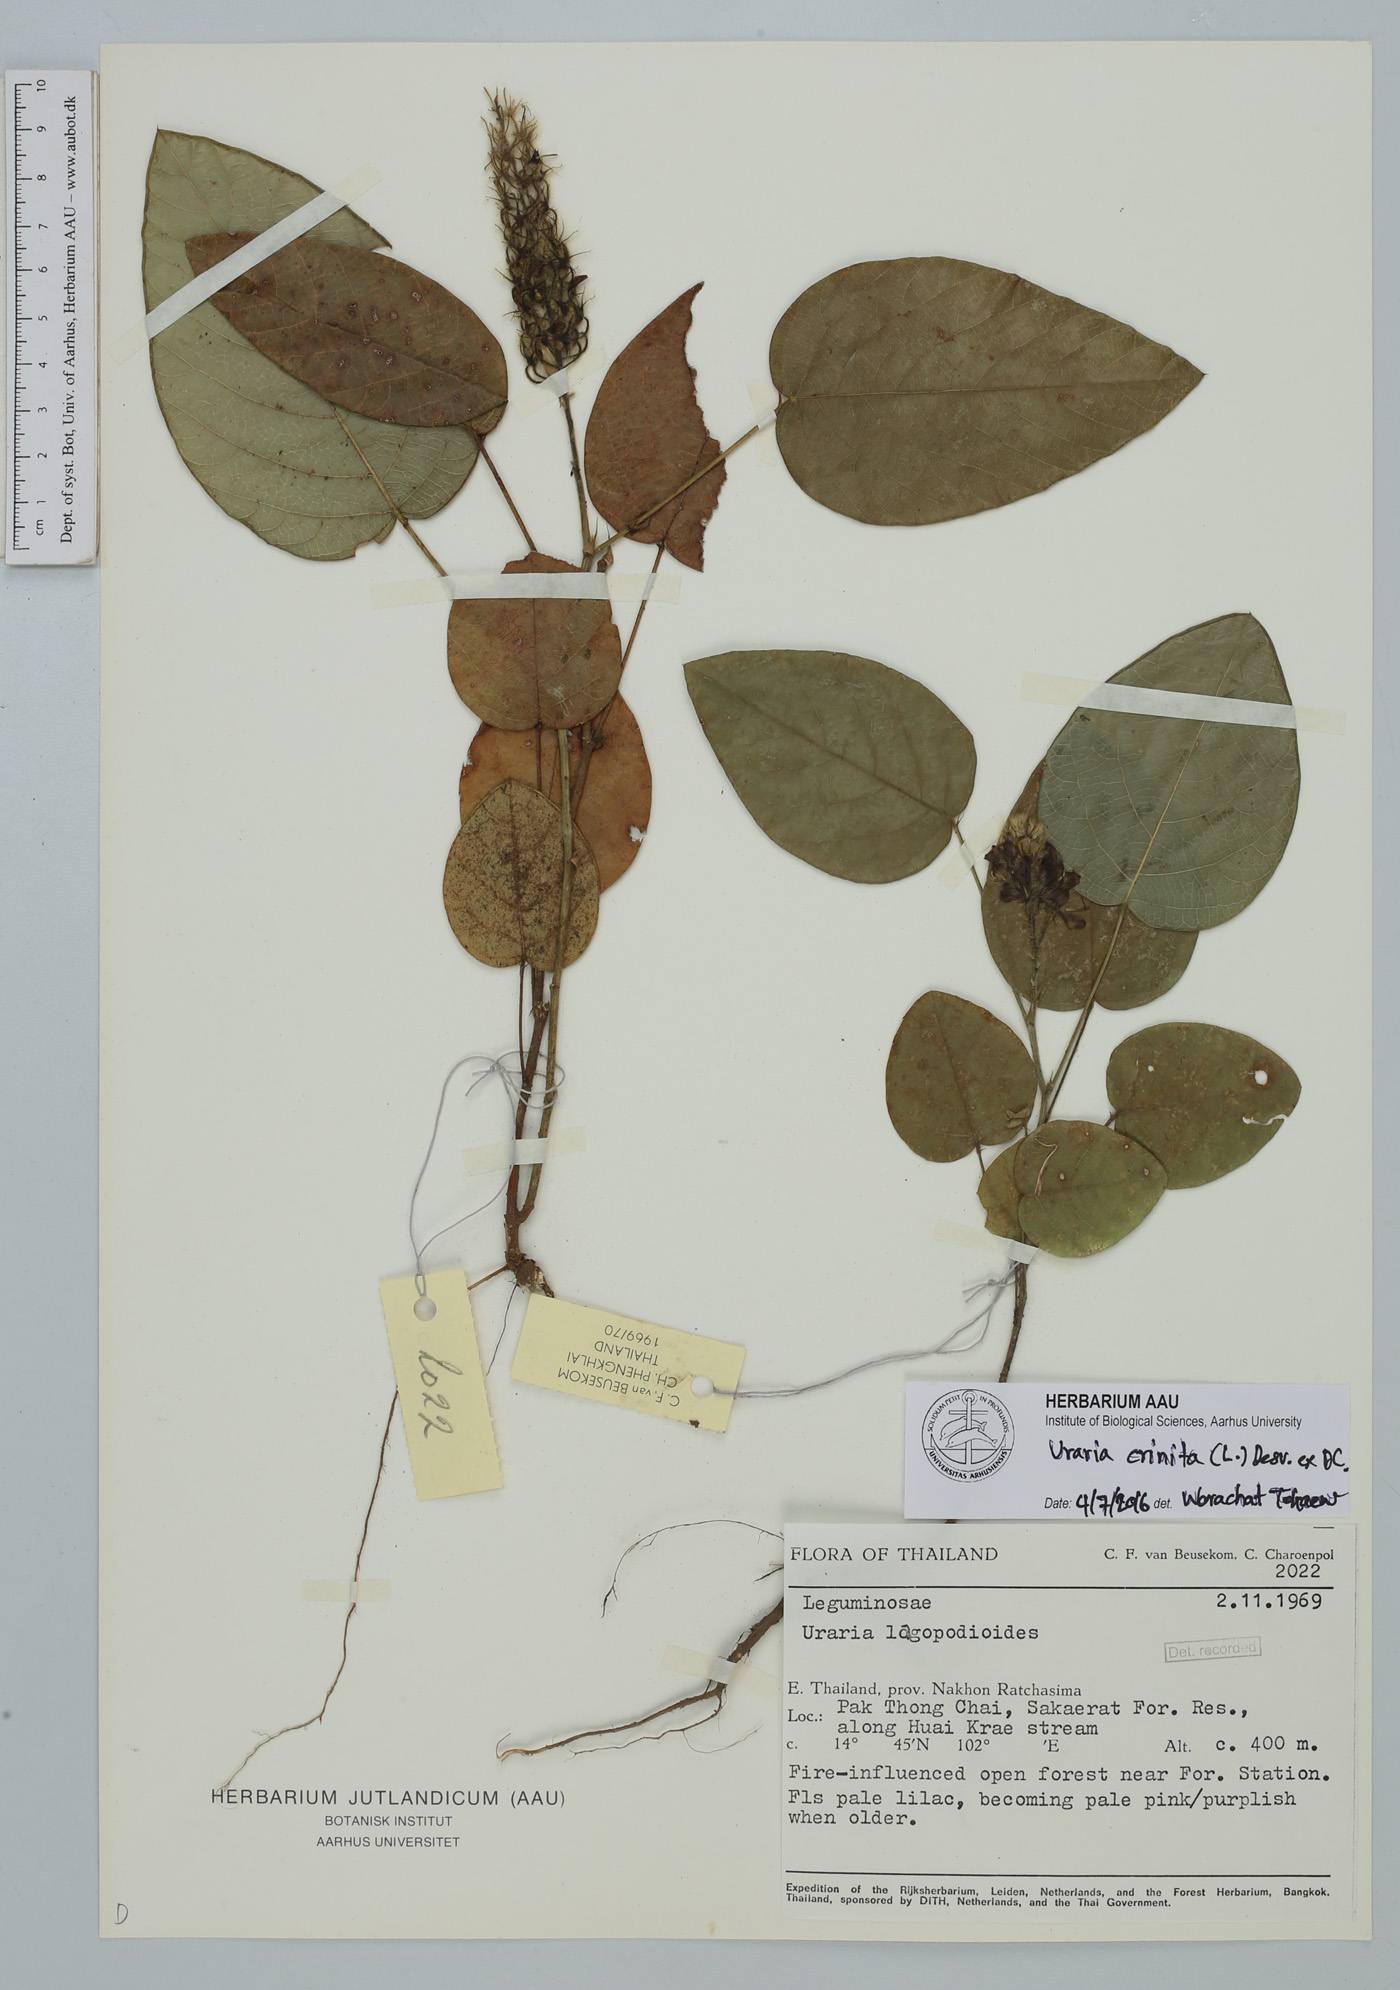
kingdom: Plantae
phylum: Tracheophyta
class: Magnoliopsida
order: Fabales
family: Fabaceae
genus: Uraria
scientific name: Uraria crinita
